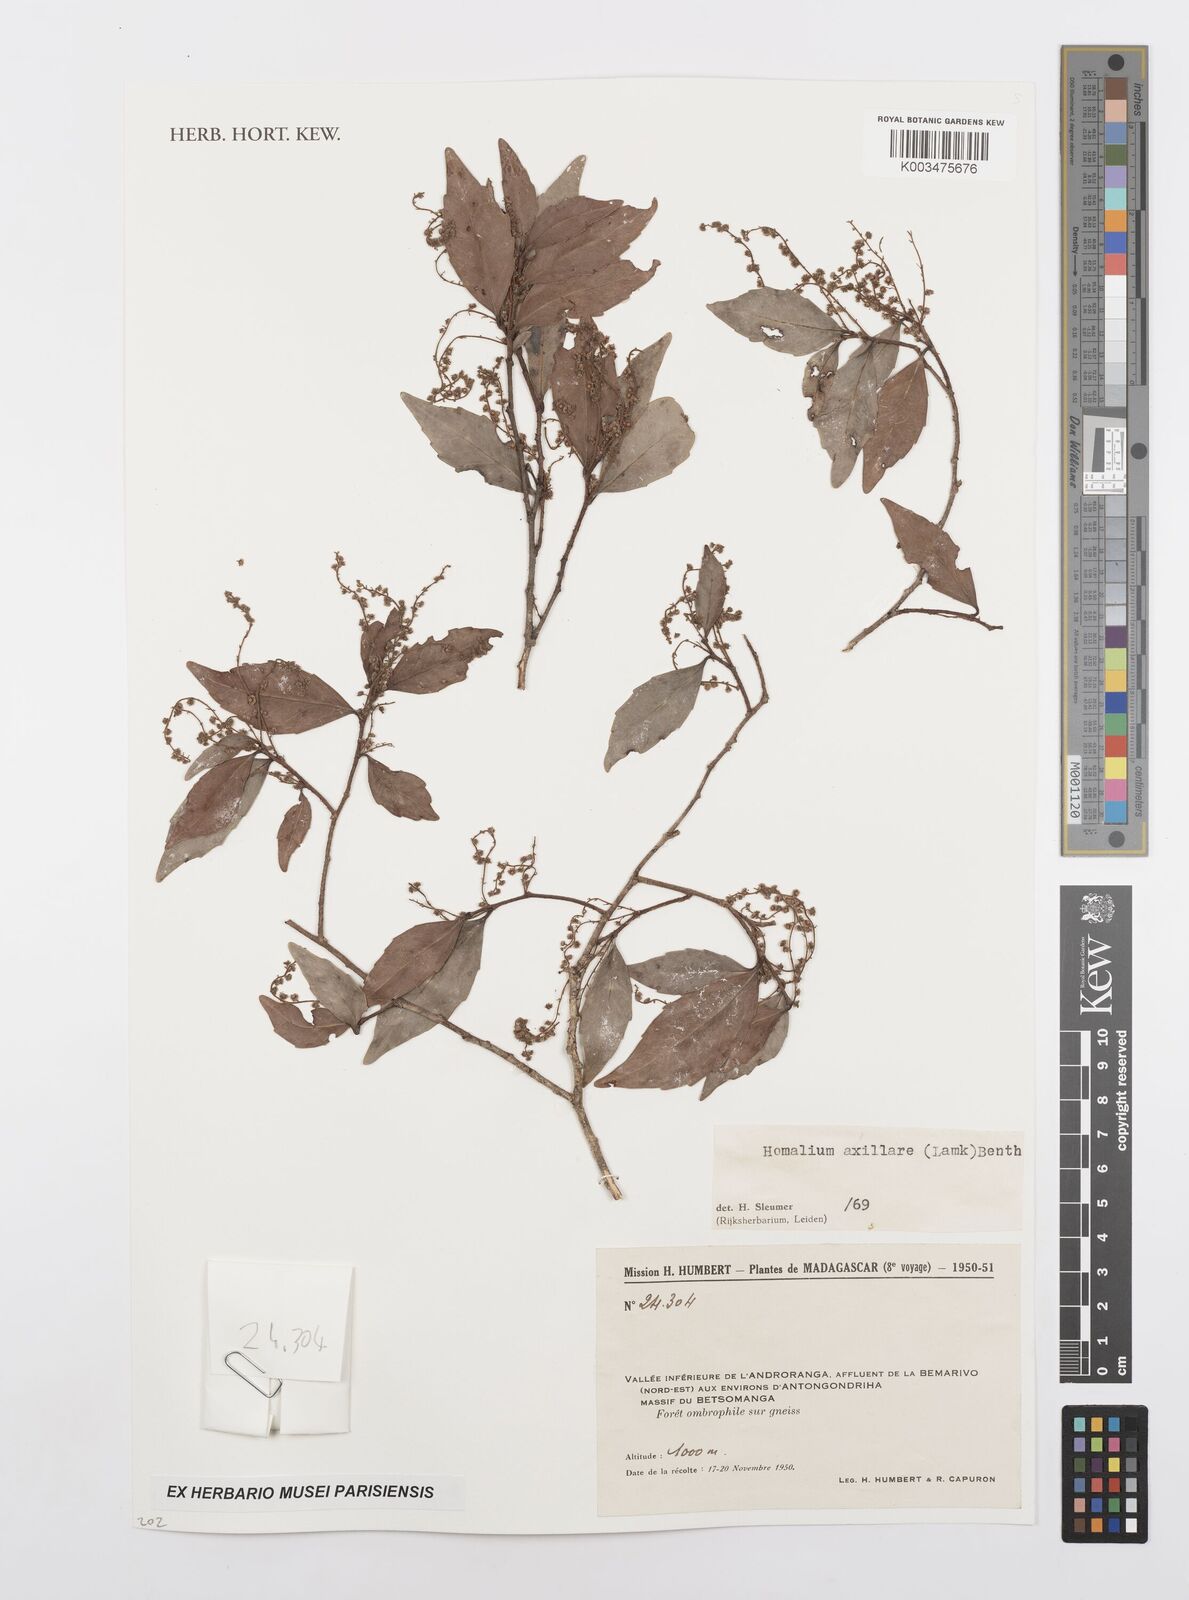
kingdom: Plantae
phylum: Tracheophyta
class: Magnoliopsida
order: Malpighiales
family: Salicaceae
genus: Homalium
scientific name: Homalium axillare
